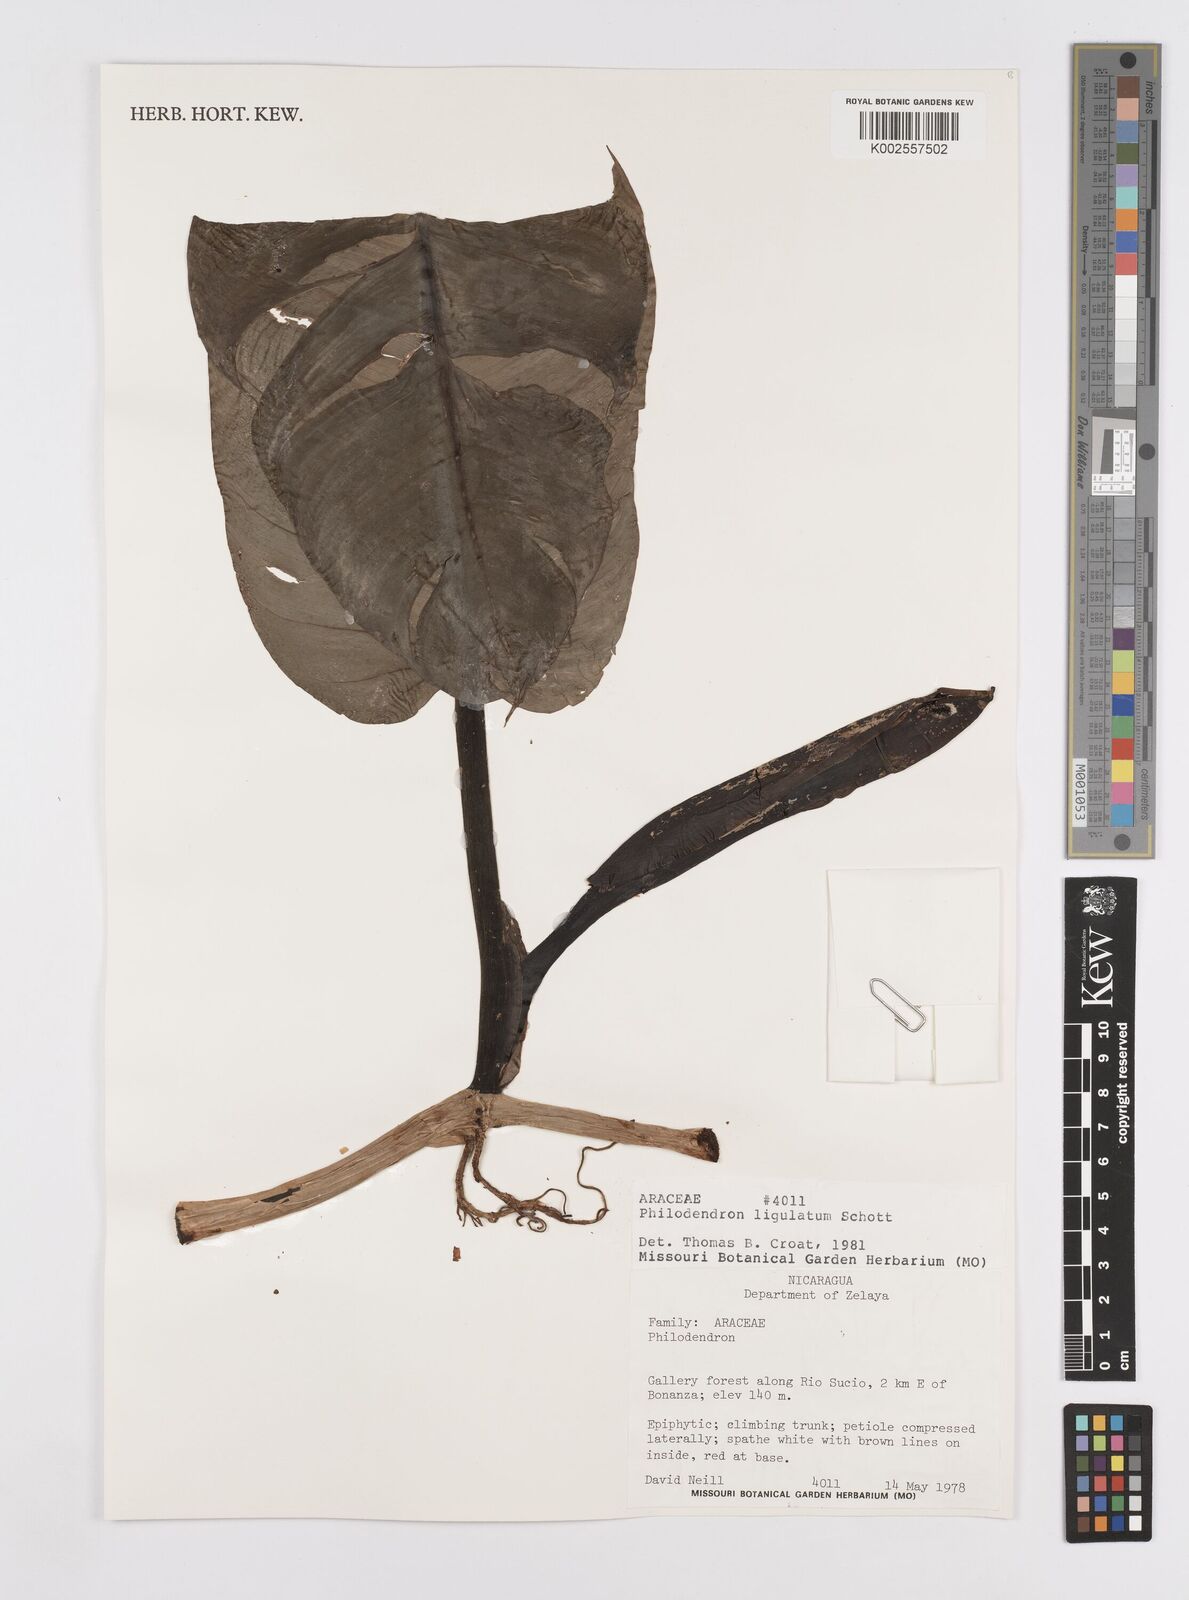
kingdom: Plantae
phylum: Tracheophyta
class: Liliopsida
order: Alismatales
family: Araceae
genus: Philodendron
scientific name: Philodendron ligulatum
